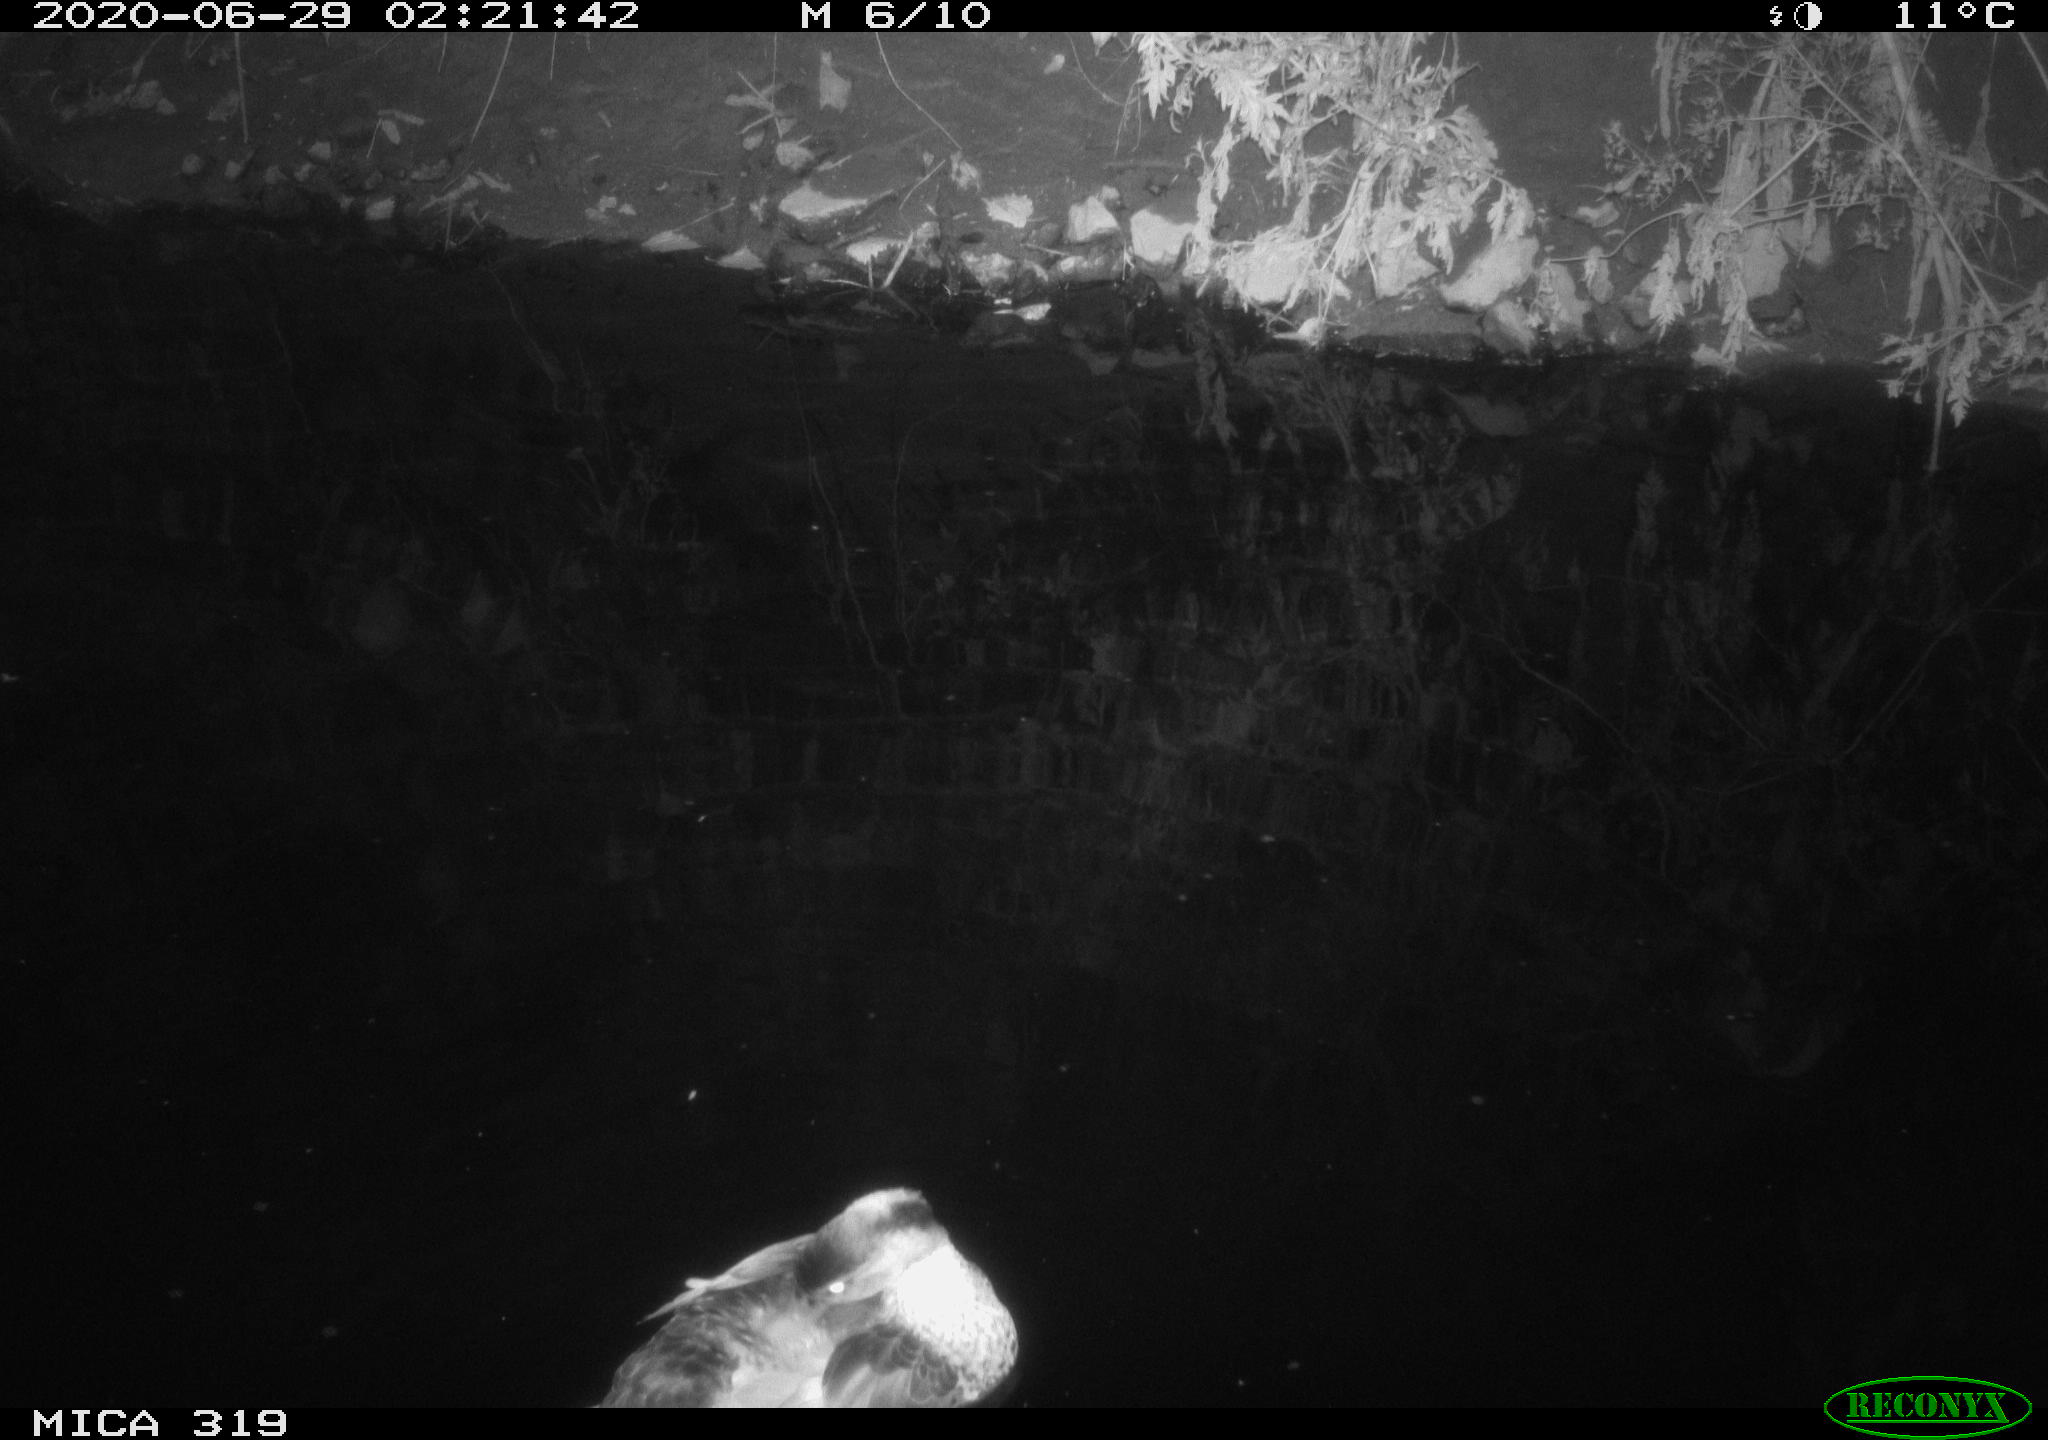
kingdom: Animalia
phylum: Chordata
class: Aves
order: Anseriformes
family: Anatidae
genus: Anas
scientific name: Anas platyrhynchos
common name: Mallard
